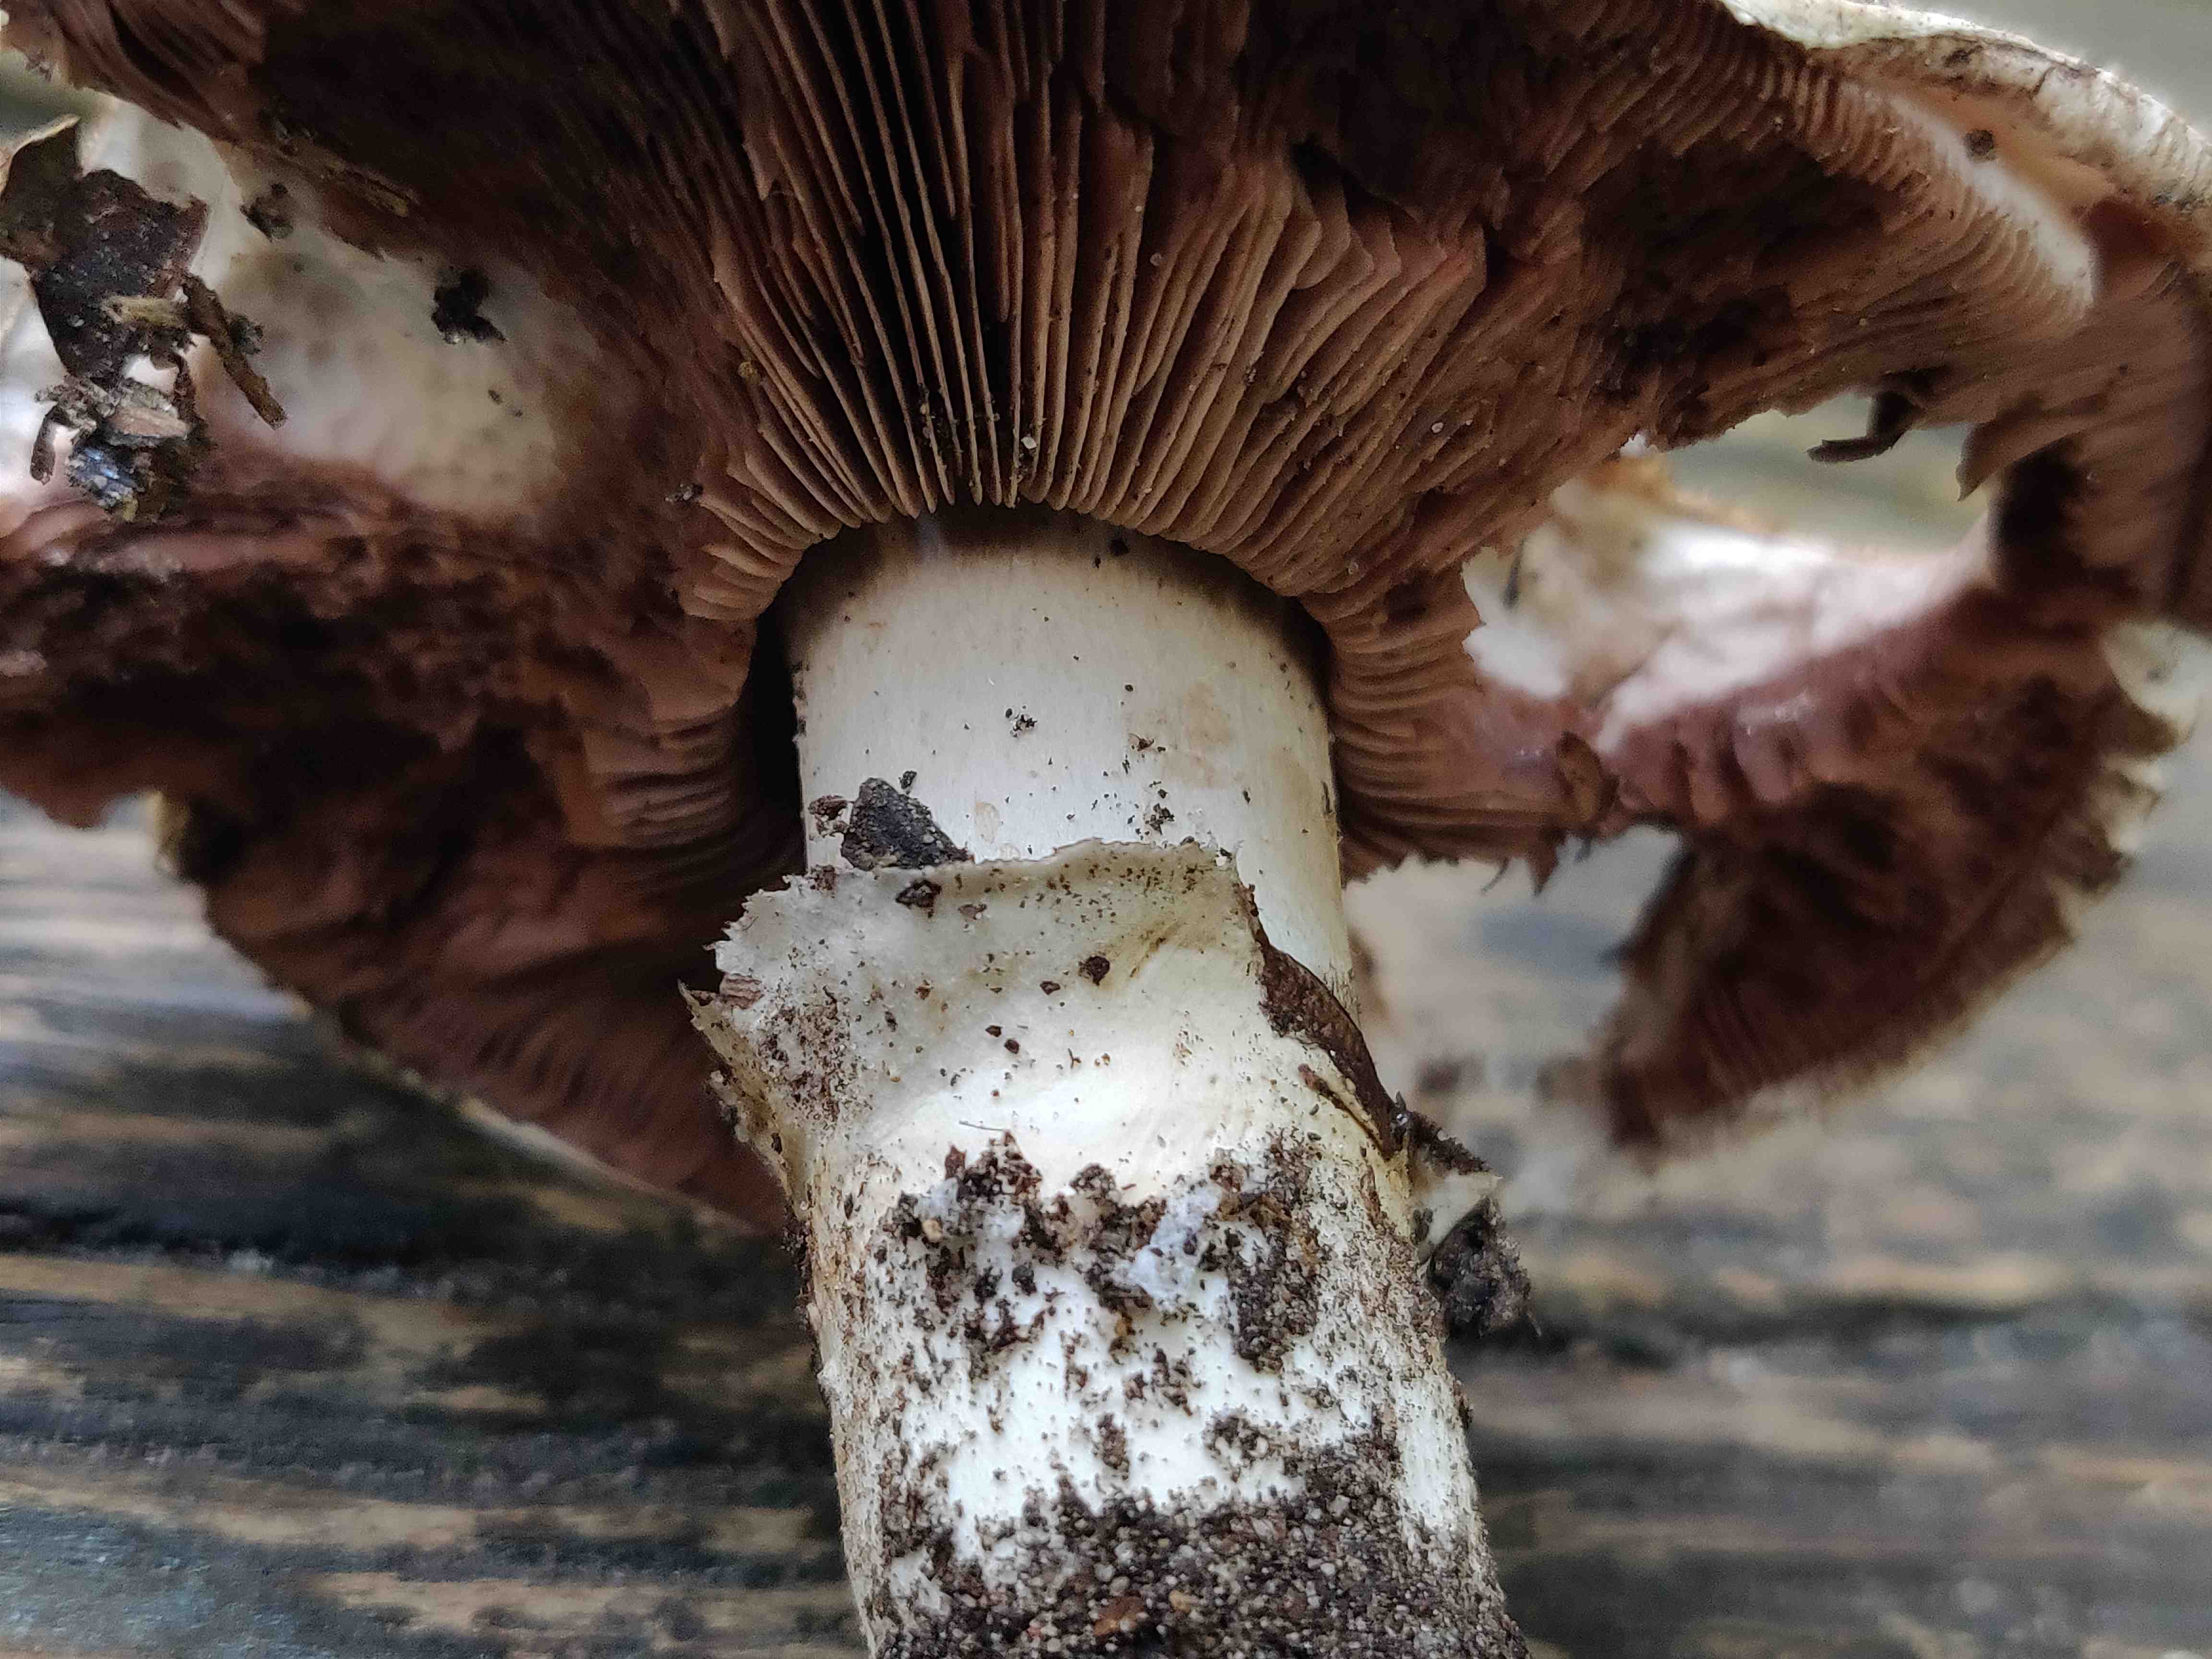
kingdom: Fungi
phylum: Basidiomycota
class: Agaricomycetes
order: Agaricales
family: Agaricaceae
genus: Agaricus
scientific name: Agaricus bitorquis
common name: vej-champignon
